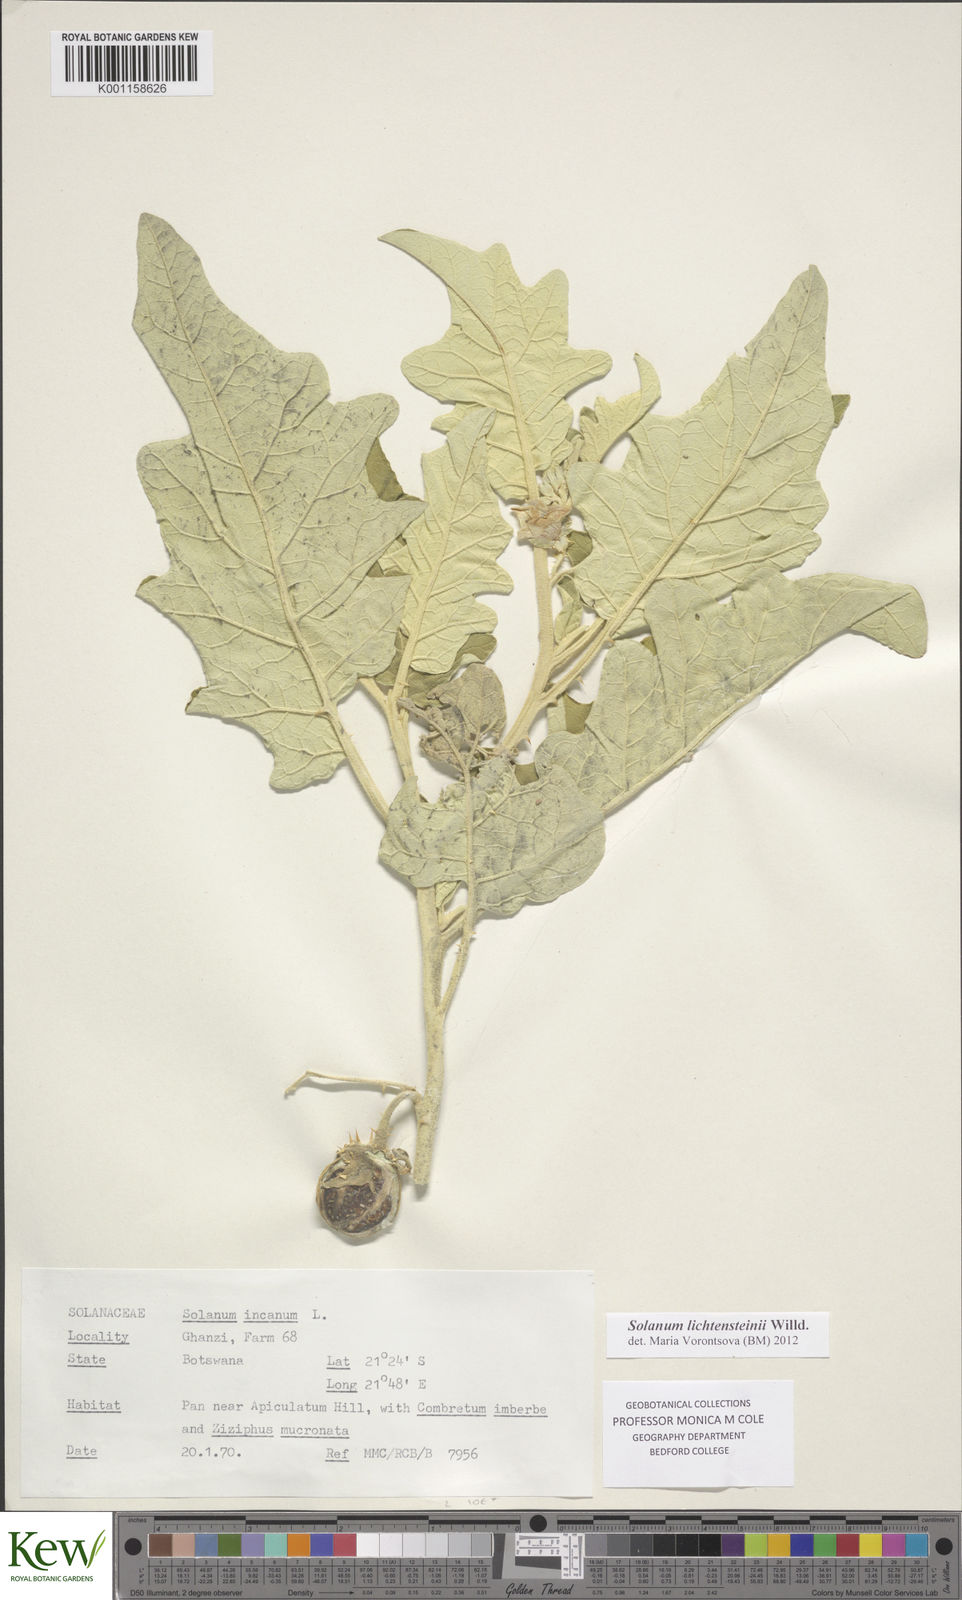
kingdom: Plantae
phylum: Tracheophyta
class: Magnoliopsida
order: Solanales
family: Solanaceae
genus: Solanum
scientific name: Solanum lichtensteinii
